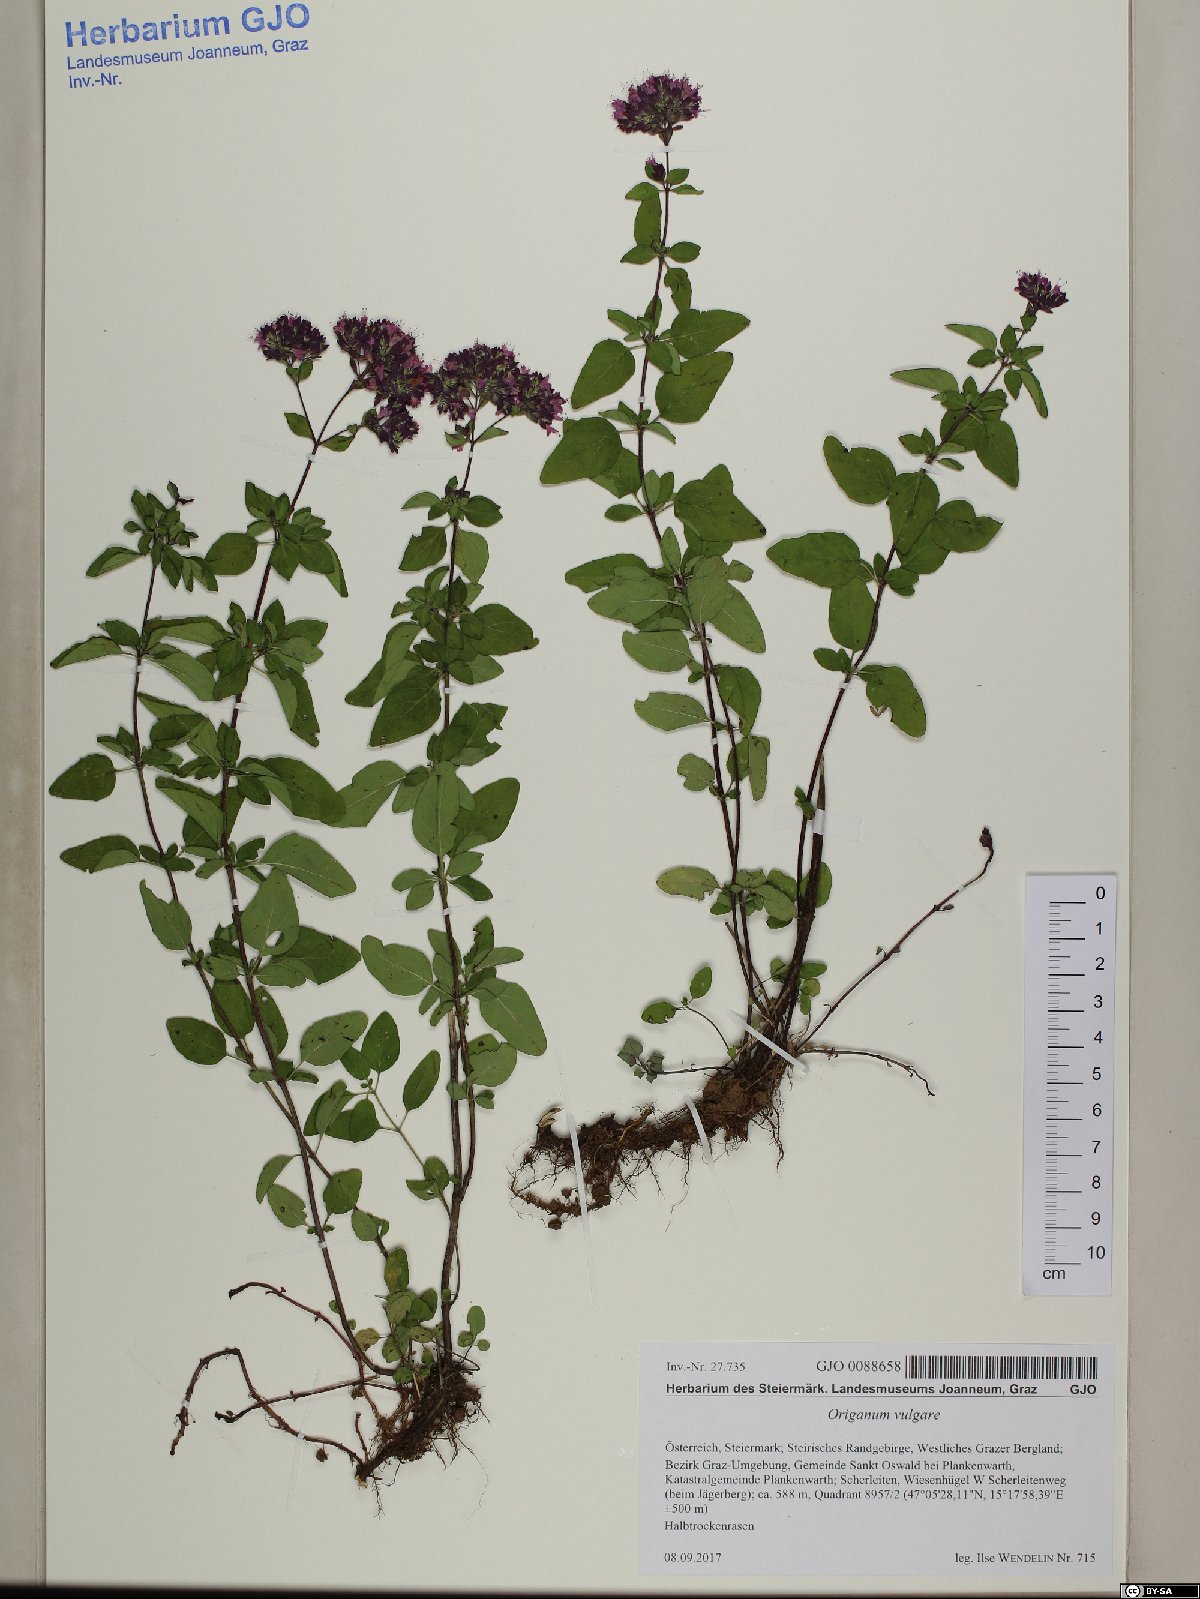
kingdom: Plantae
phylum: Tracheophyta
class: Magnoliopsida
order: Lamiales
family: Lamiaceae
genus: Origanum
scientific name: Origanum vulgare
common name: Wild marjoram
